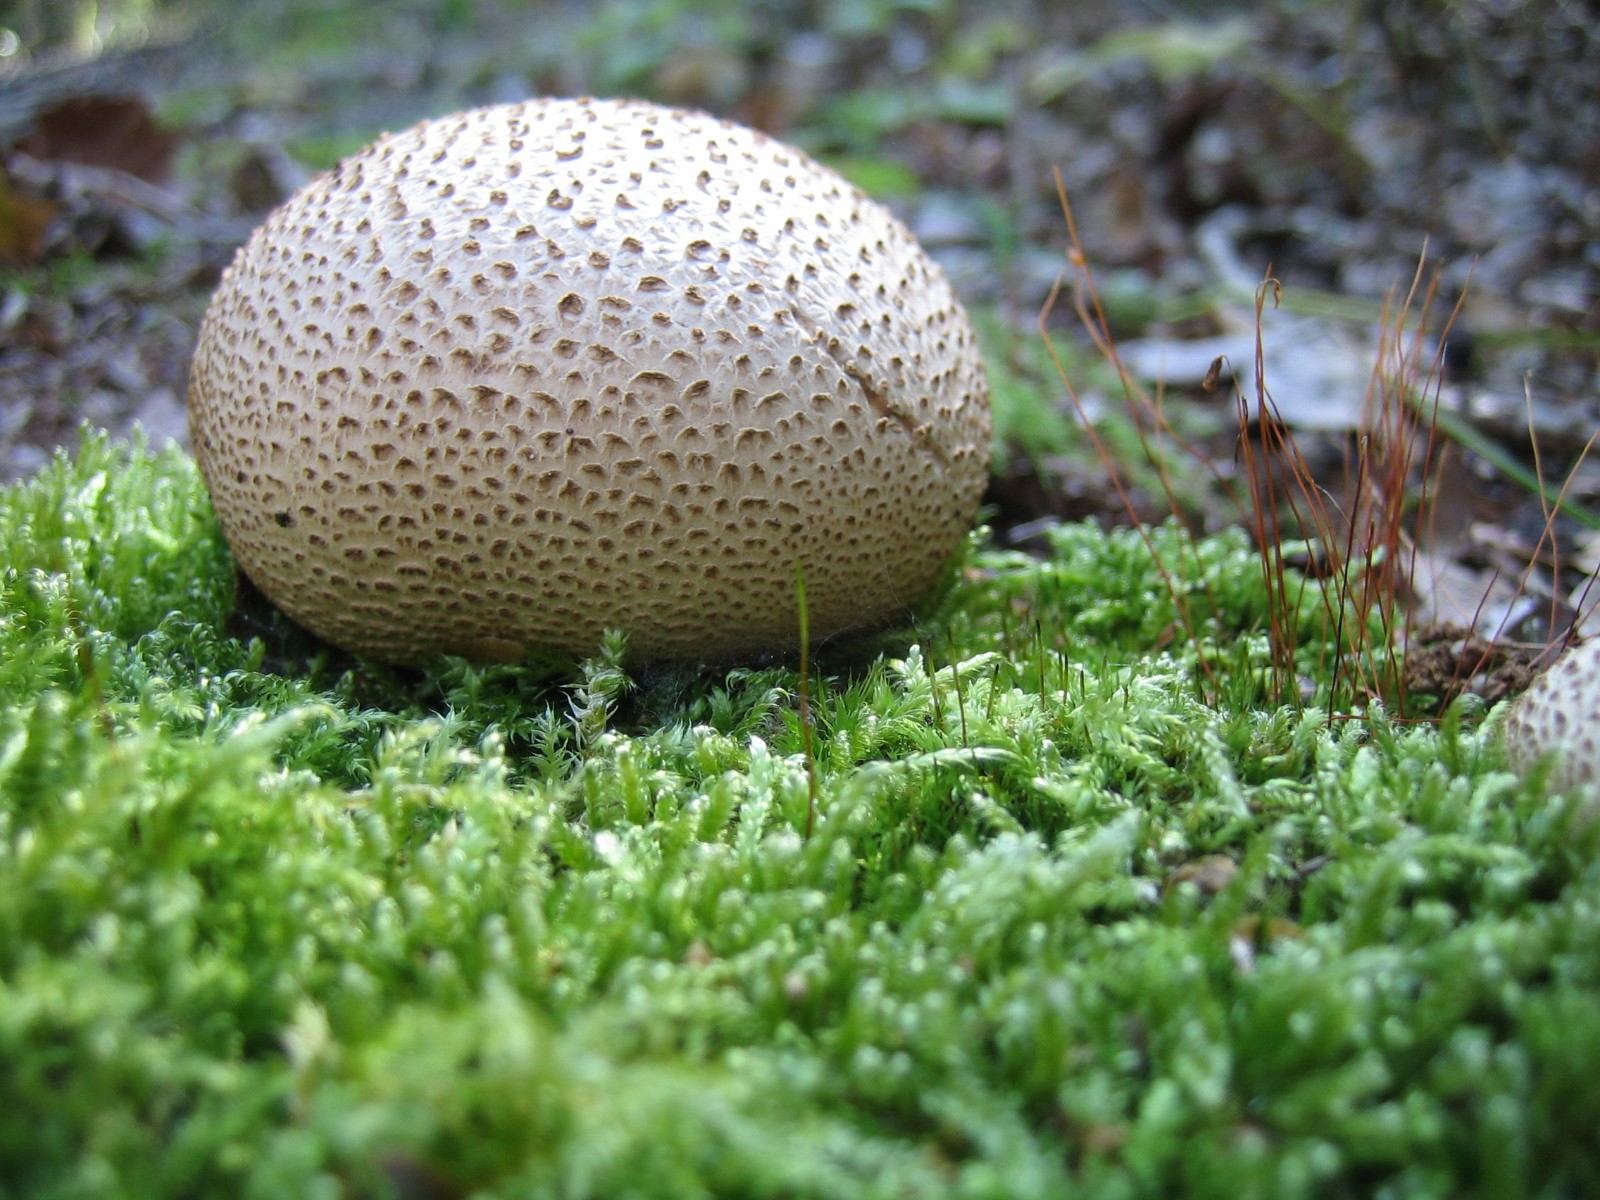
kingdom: Fungi
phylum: Basidiomycota
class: Agaricomycetes
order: Boletales
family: Sclerodermataceae
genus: Scleroderma
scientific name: Scleroderma citrinum
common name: almindelig bruskbold
